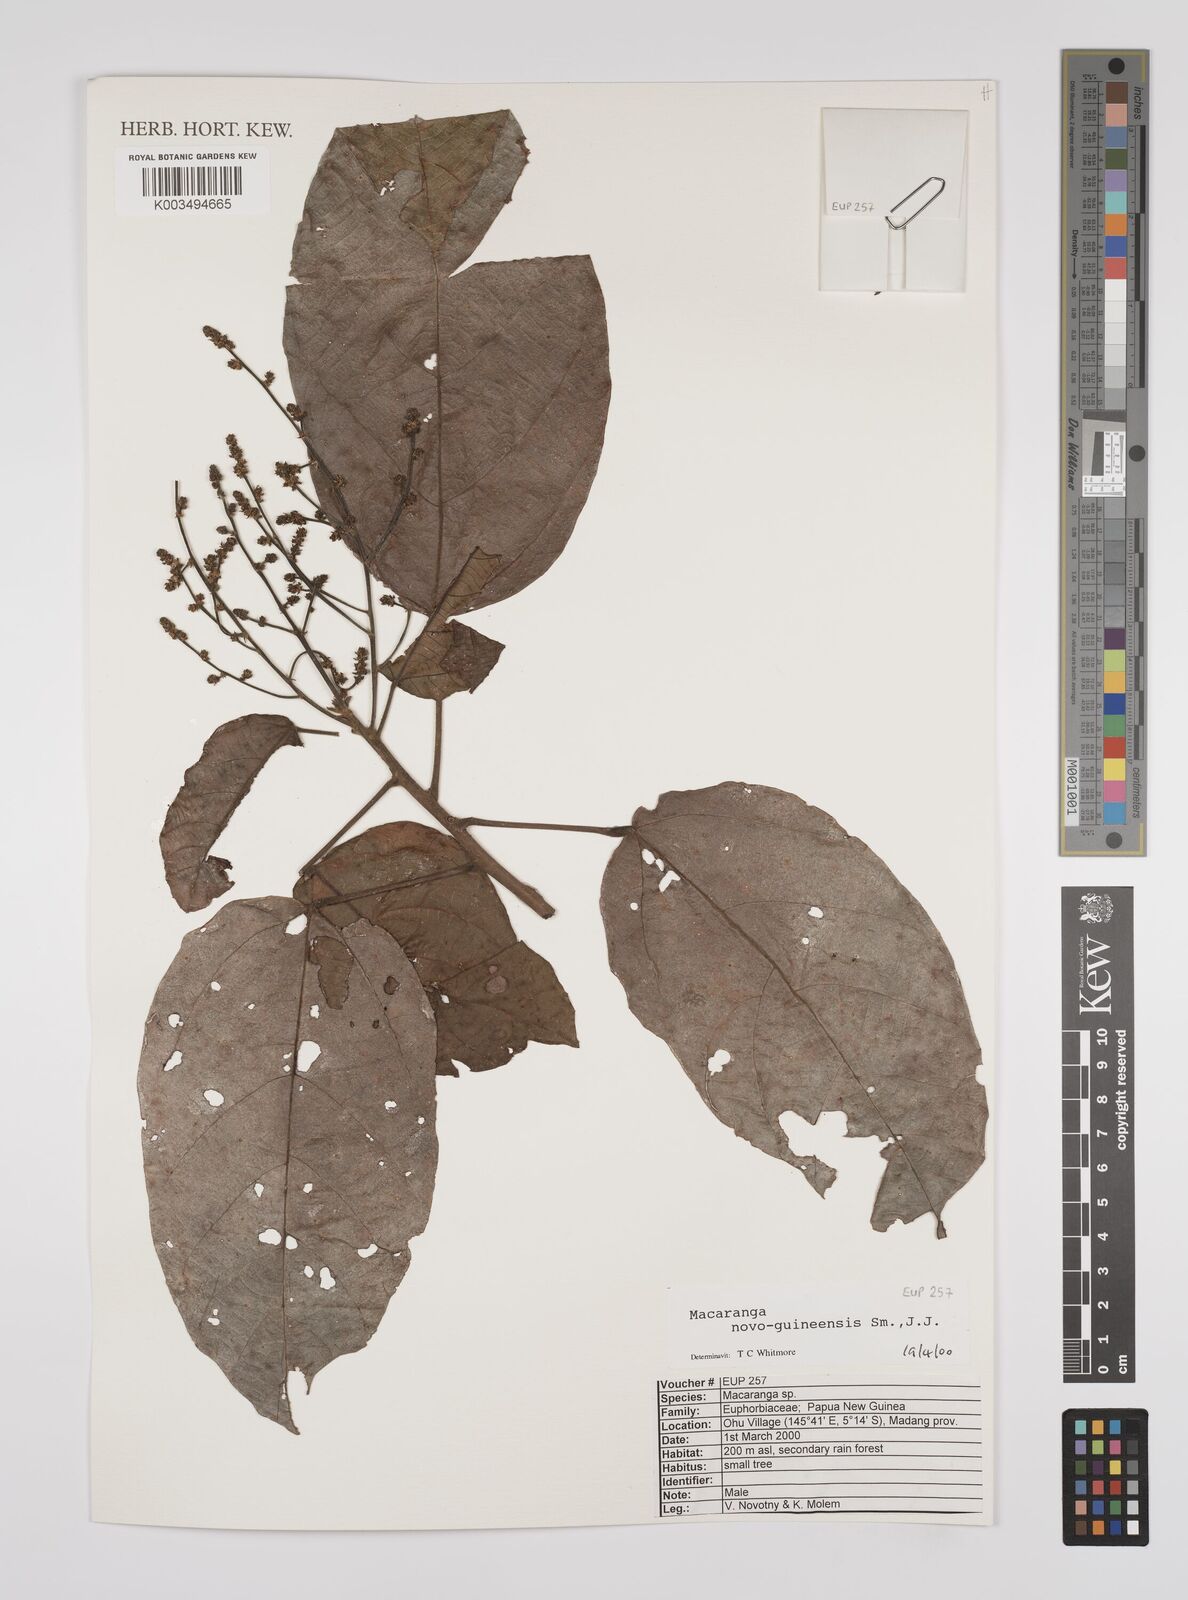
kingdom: Plantae
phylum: Tracheophyta
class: Magnoliopsida
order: Malpighiales
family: Euphorbiaceae
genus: Macaranga
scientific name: Macaranga novoguineensis
